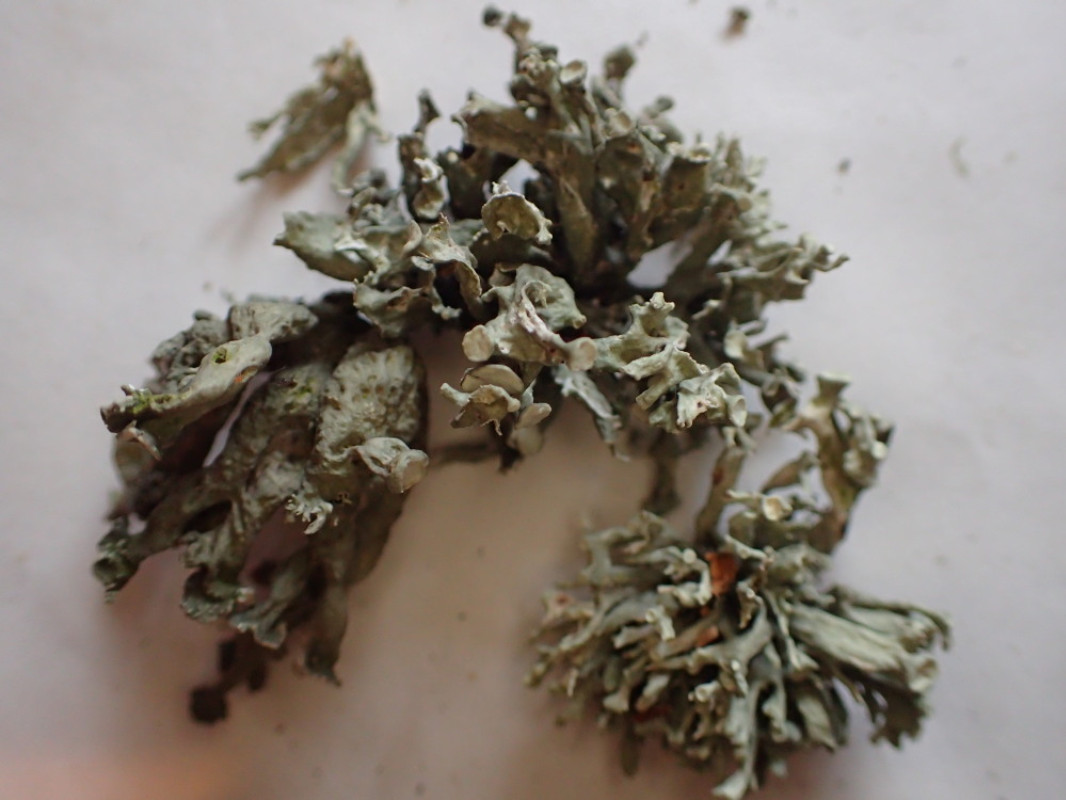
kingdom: Fungi
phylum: Ascomycota
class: Lecanoromycetes
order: Lecanorales
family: Ramalinaceae
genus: Ramalina
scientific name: Ramalina fastigiata
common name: tue-grenlav
